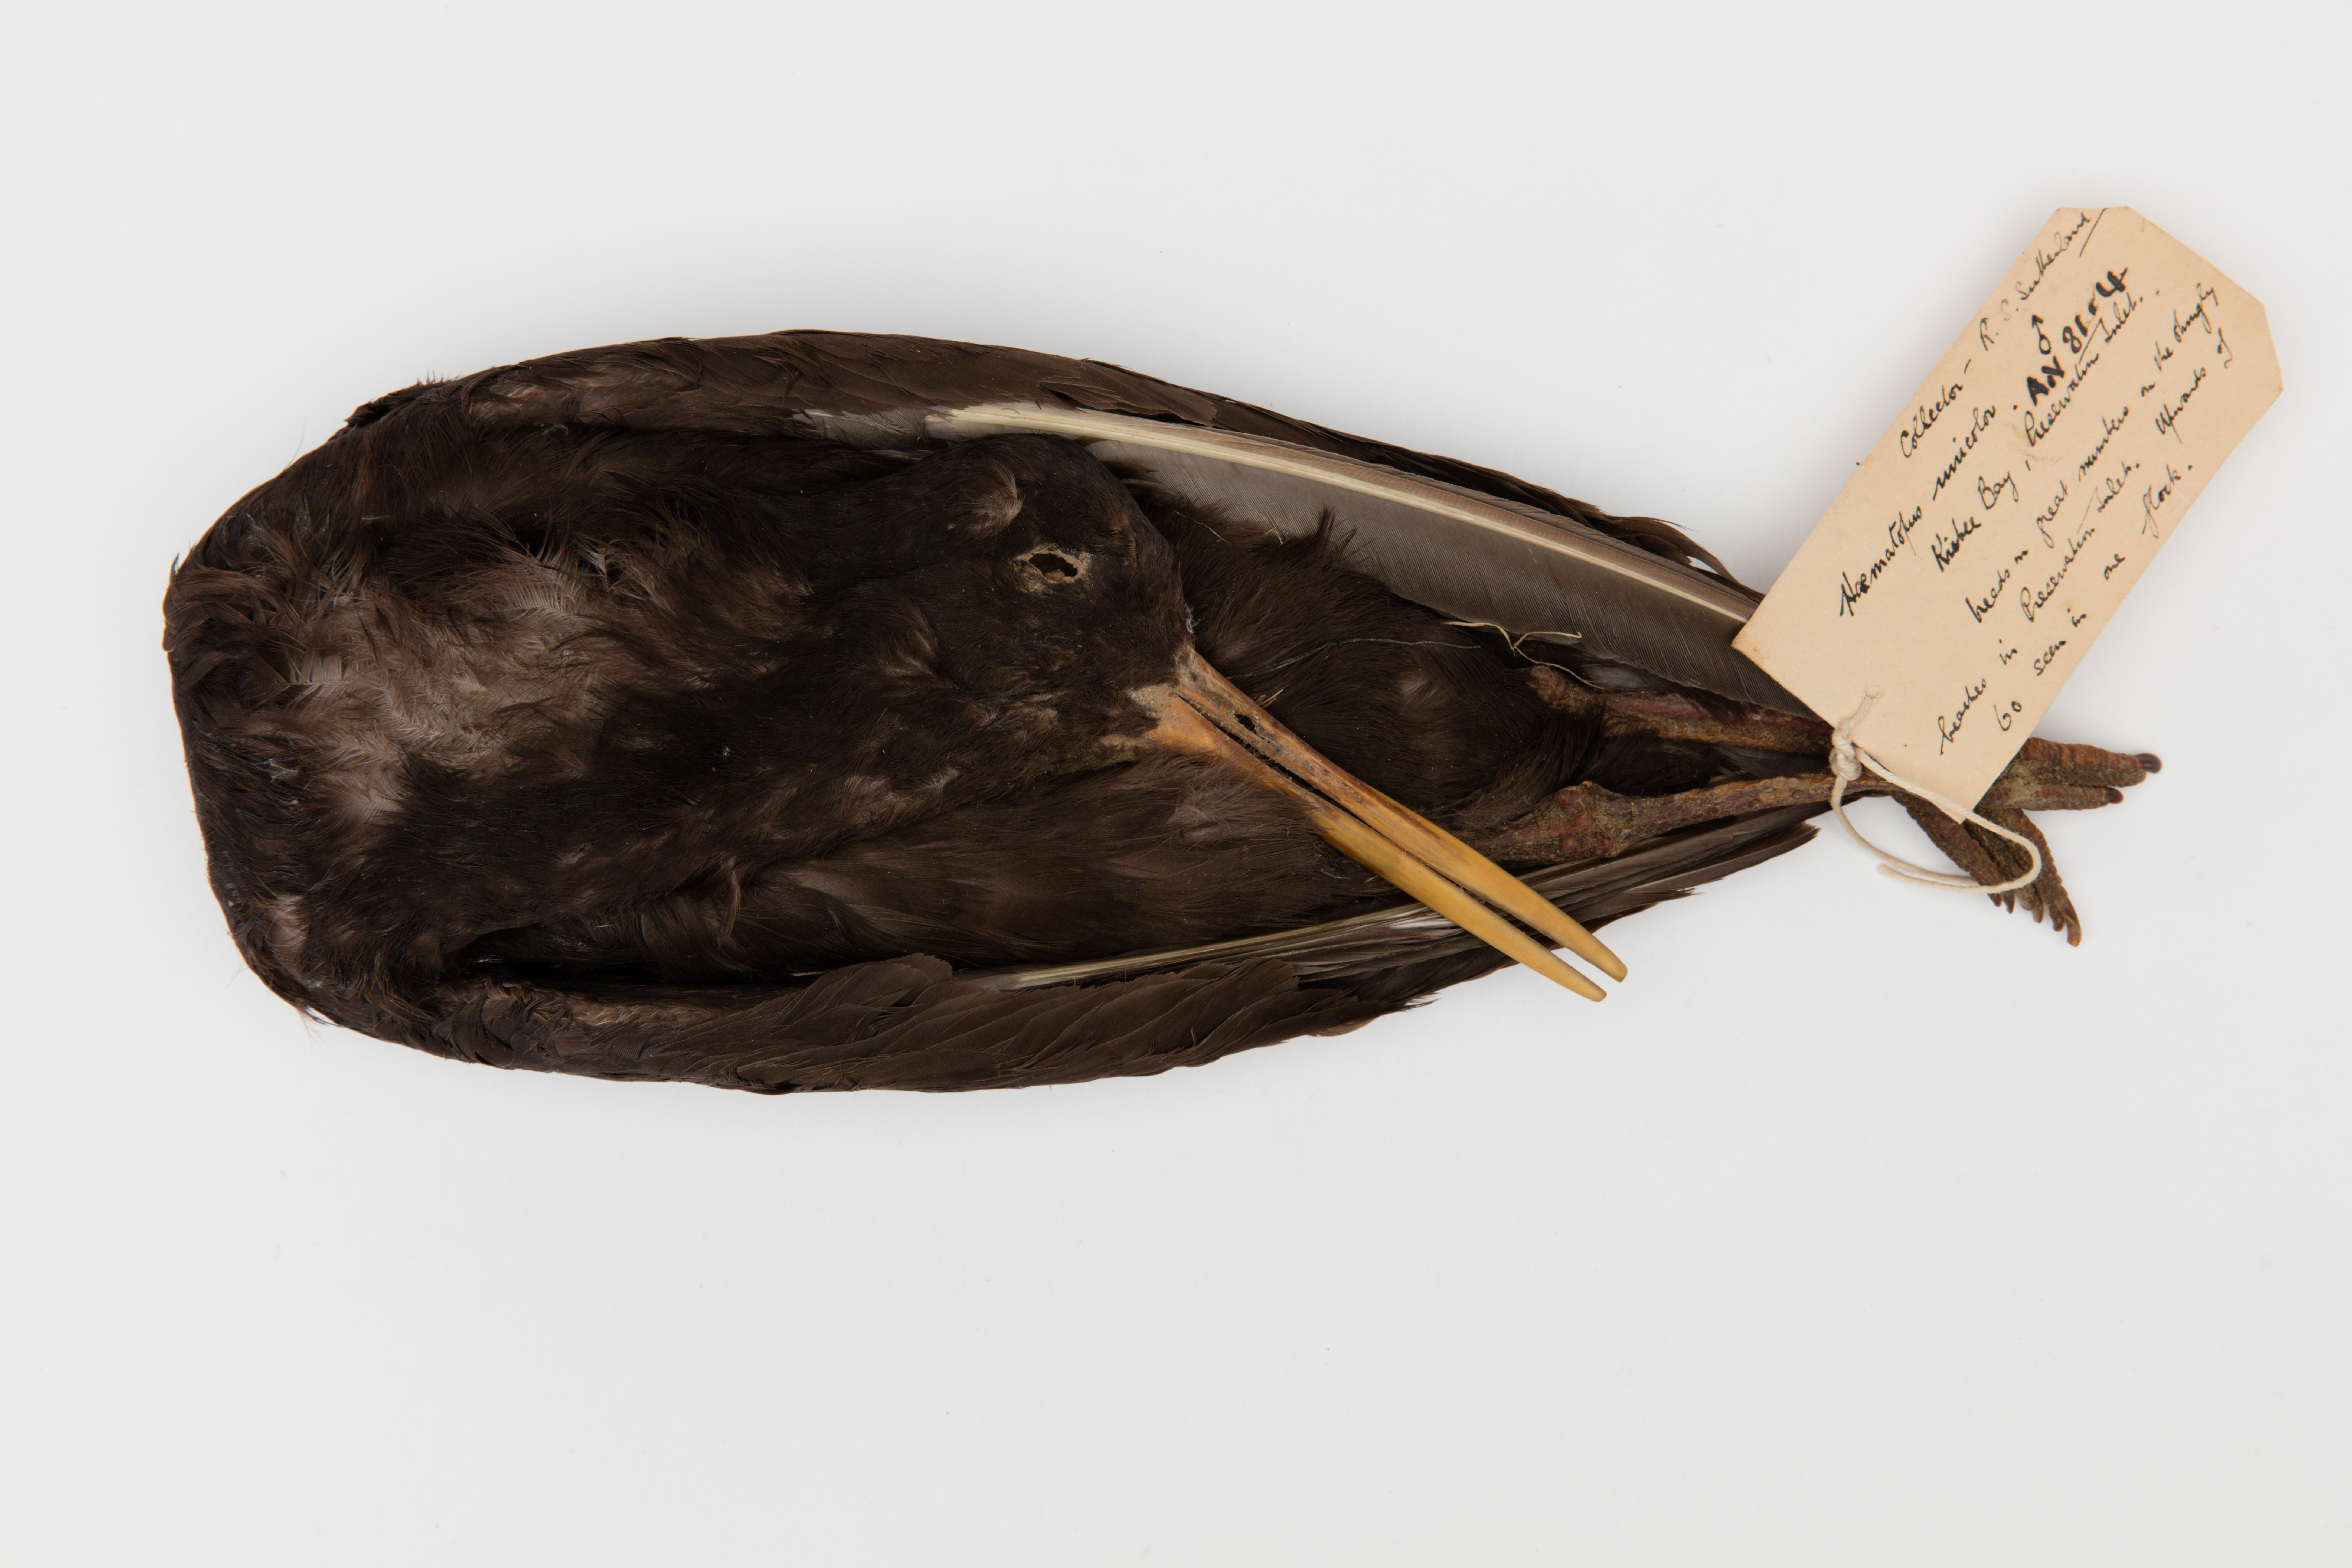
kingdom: Animalia
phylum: Chordata
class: Aves
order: Charadriiformes
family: Haematopodidae
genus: Haematopus
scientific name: Haematopus unicolor
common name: Variable oystercatcher
